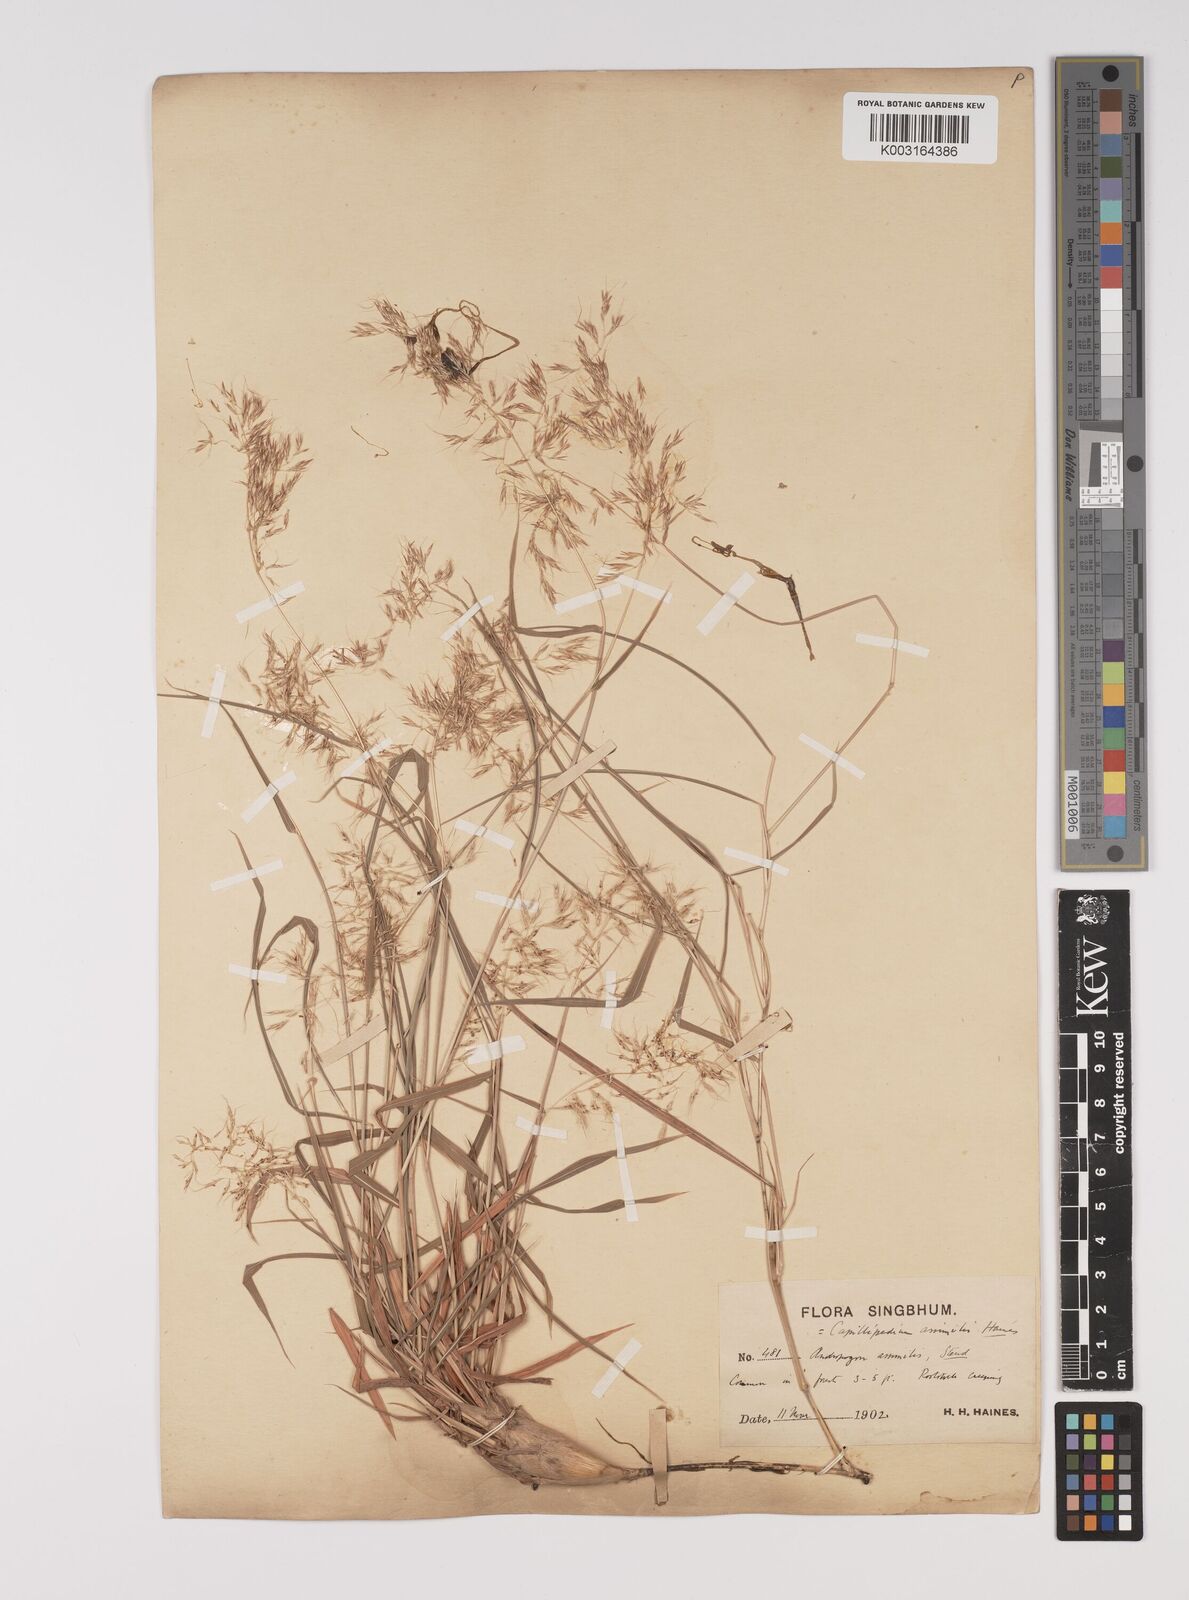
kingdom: Plantae
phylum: Tracheophyta
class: Liliopsida
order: Poales
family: Poaceae
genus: Capillipedium
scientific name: Capillipedium assimile
